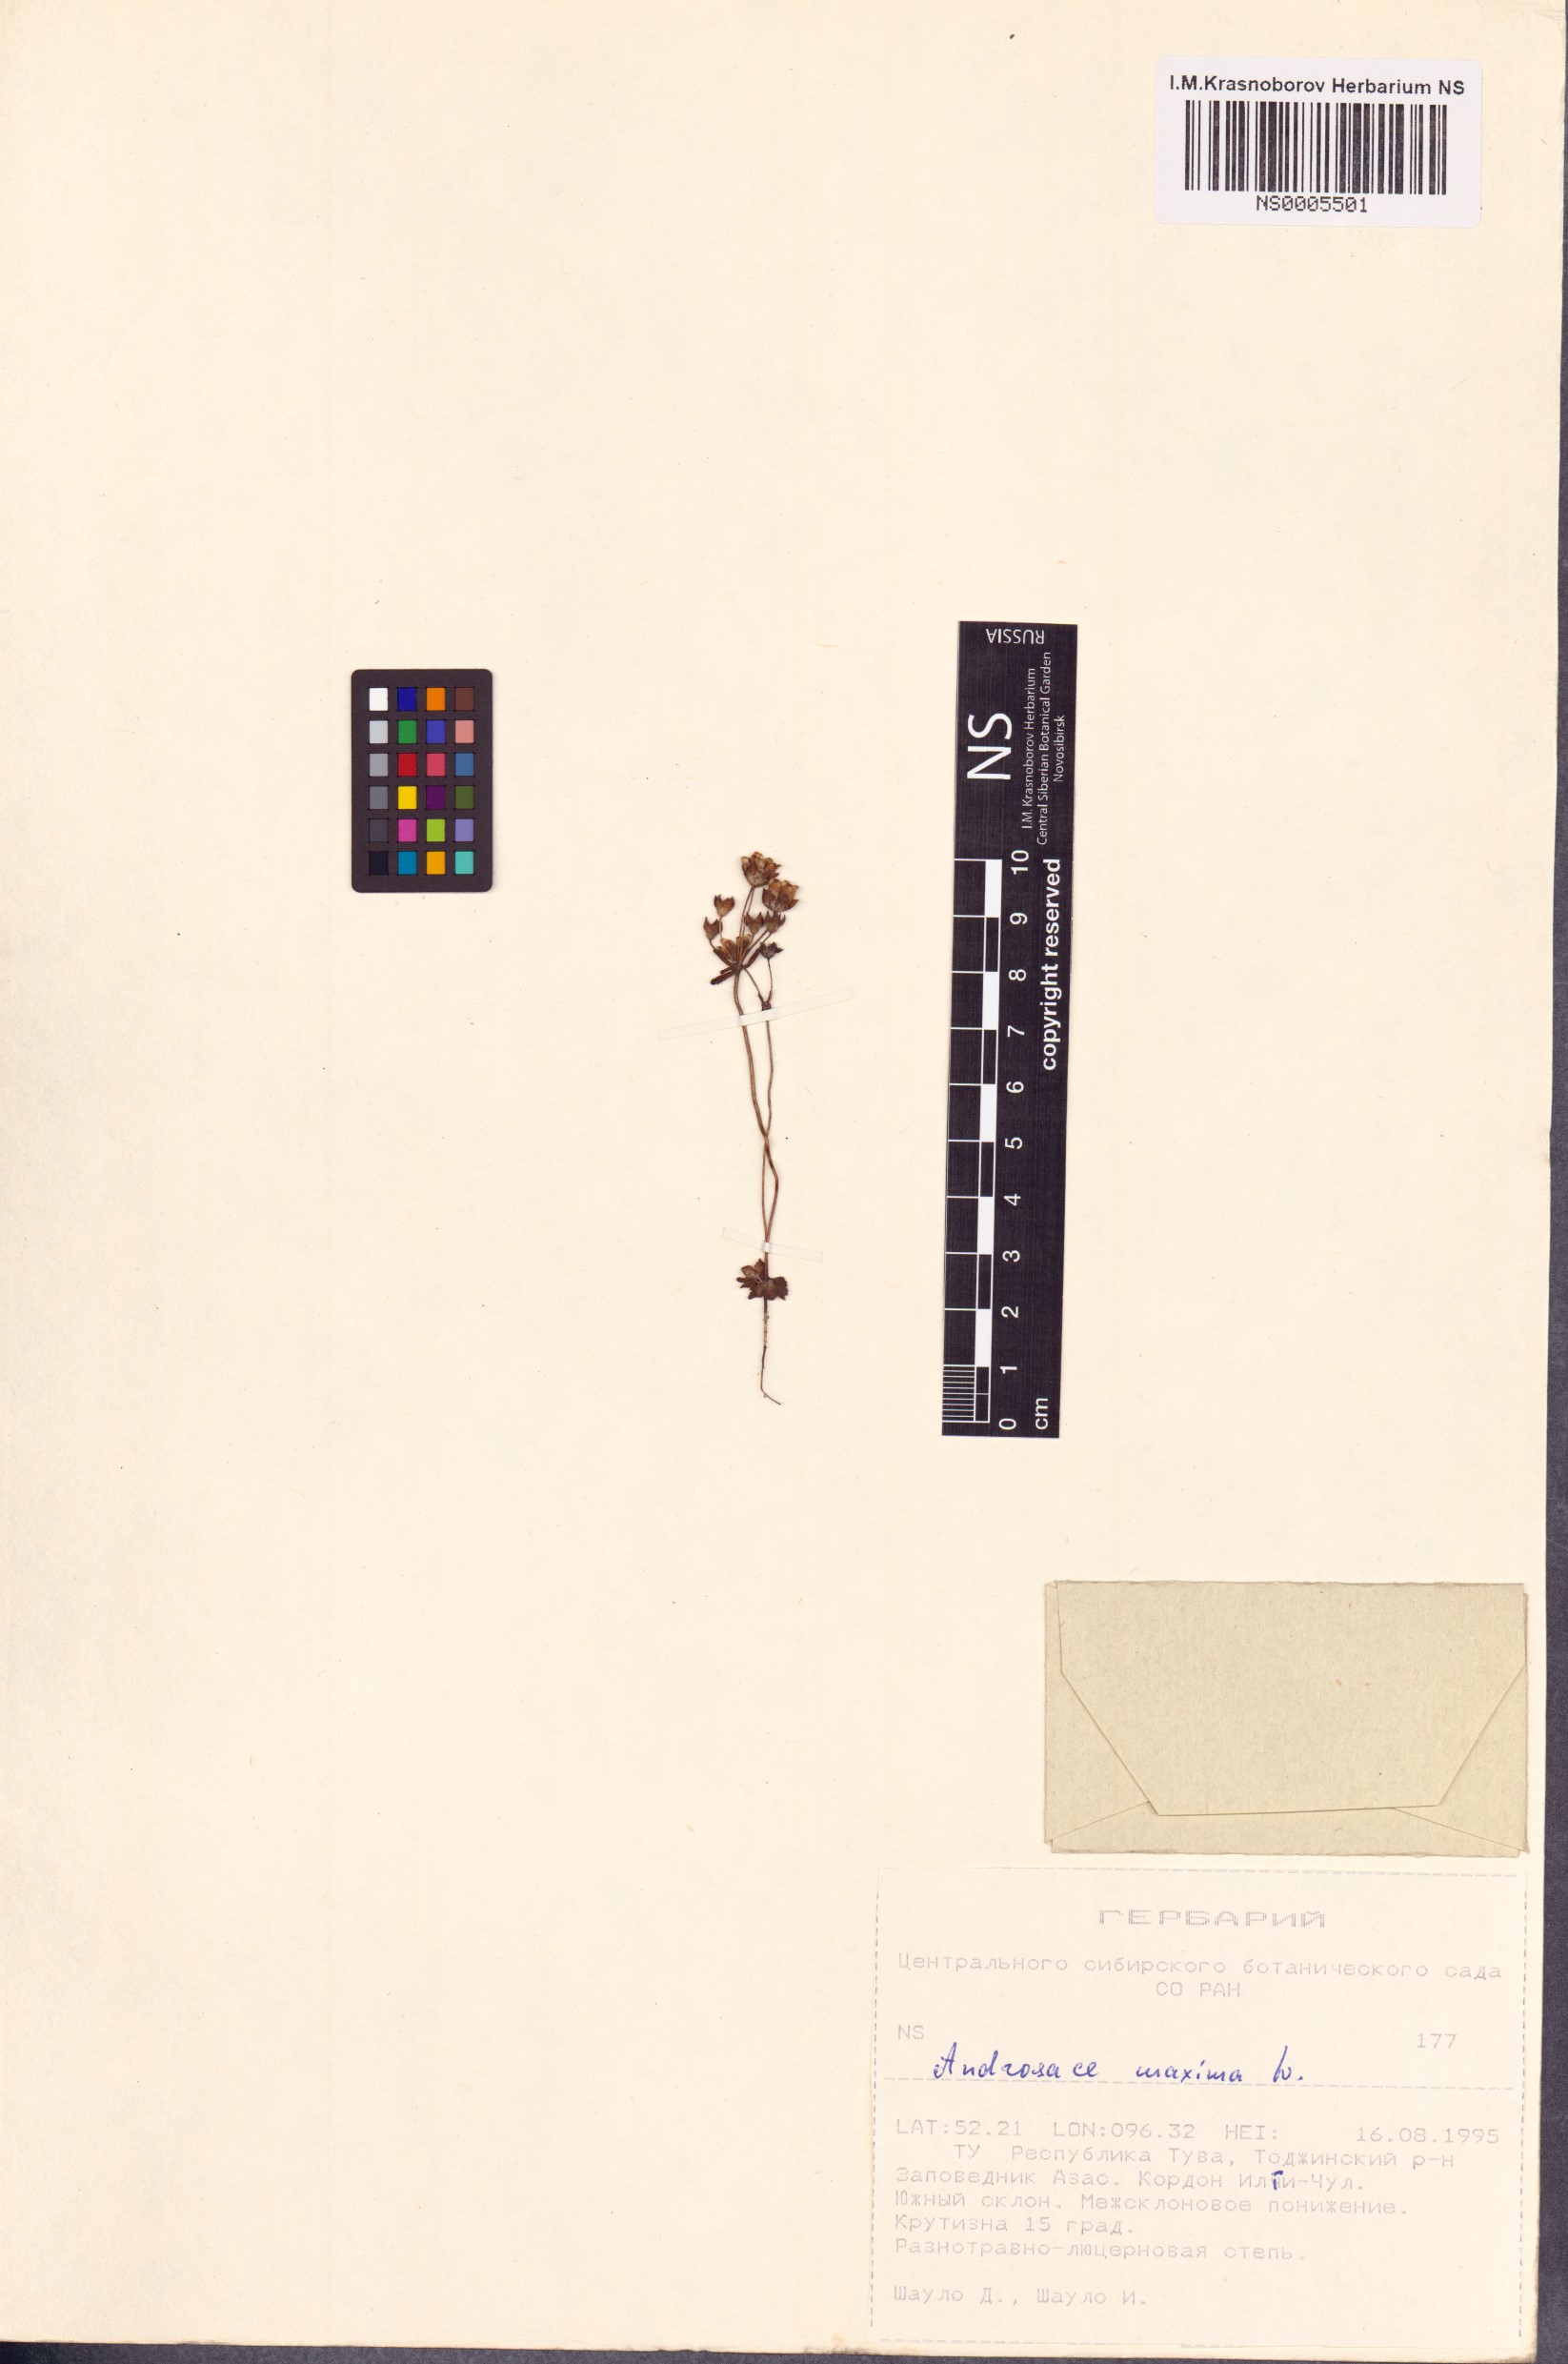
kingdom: Plantae
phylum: Tracheophyta
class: Magnoliopsida
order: Ericales
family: Primulaceae
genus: Androsace
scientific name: Androsace maxima
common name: Annual androsace
